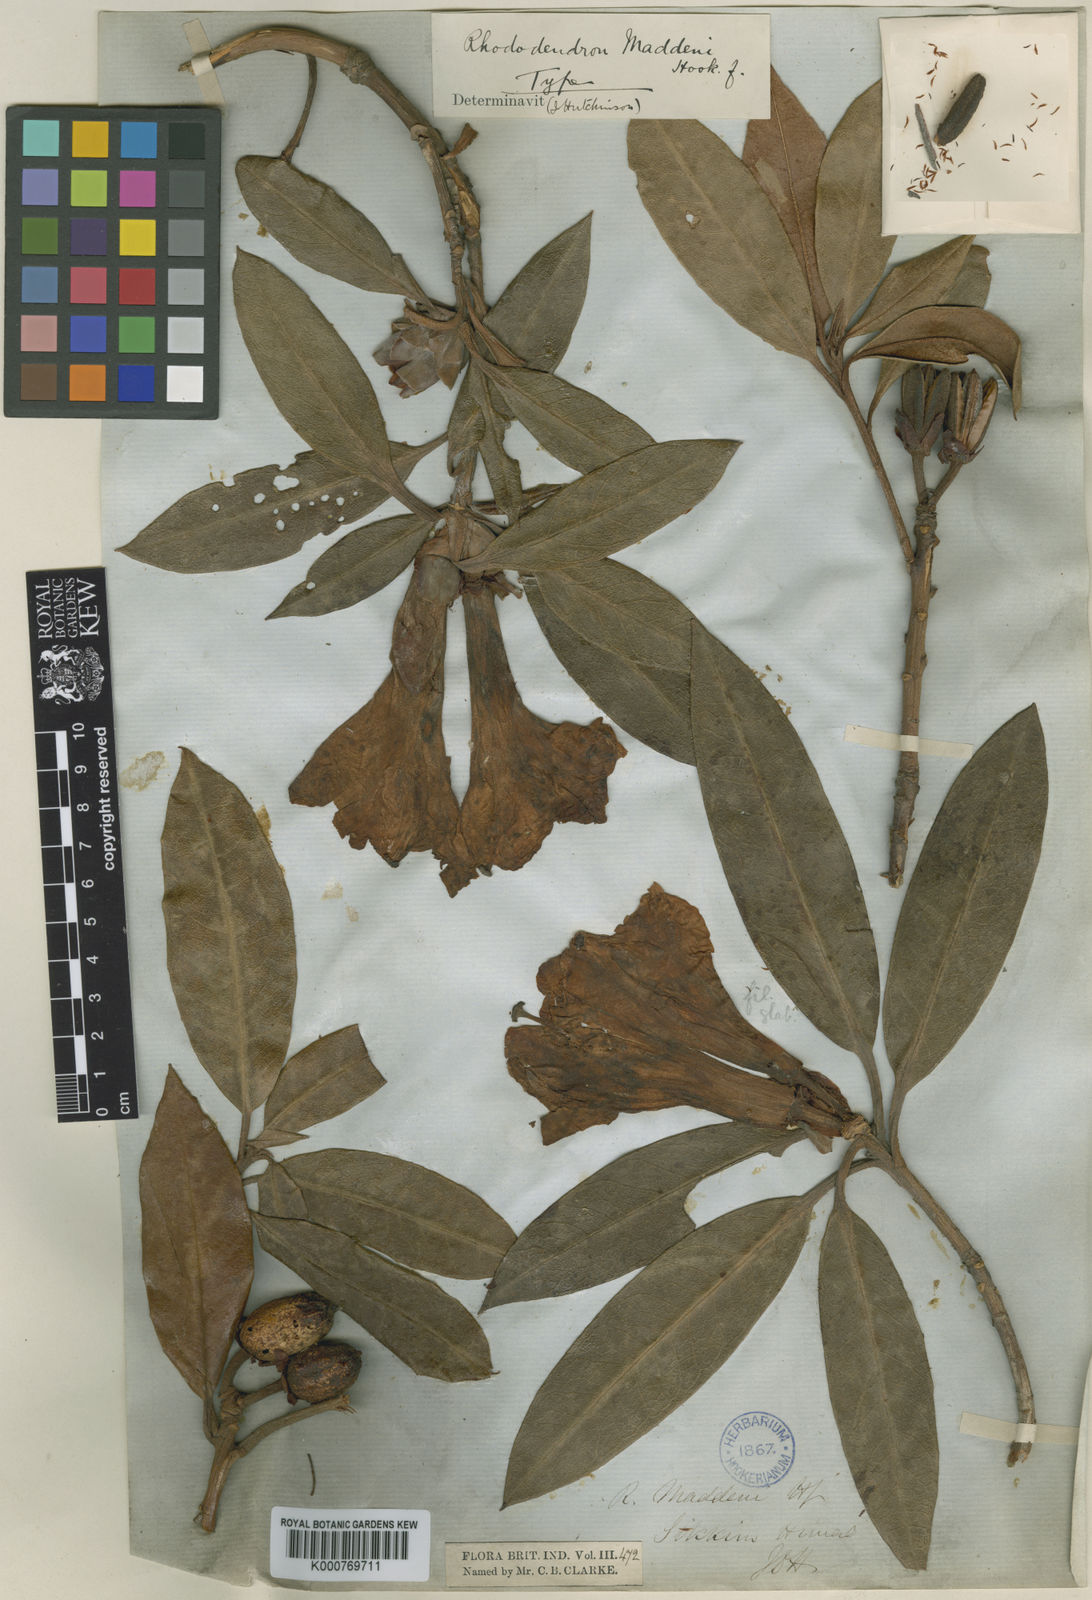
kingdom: Plantae
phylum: Tracheophyta
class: Magnoliopsida
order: Ericales
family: Ericaceae
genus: Rhododendron
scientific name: Rhododendron maddenii
